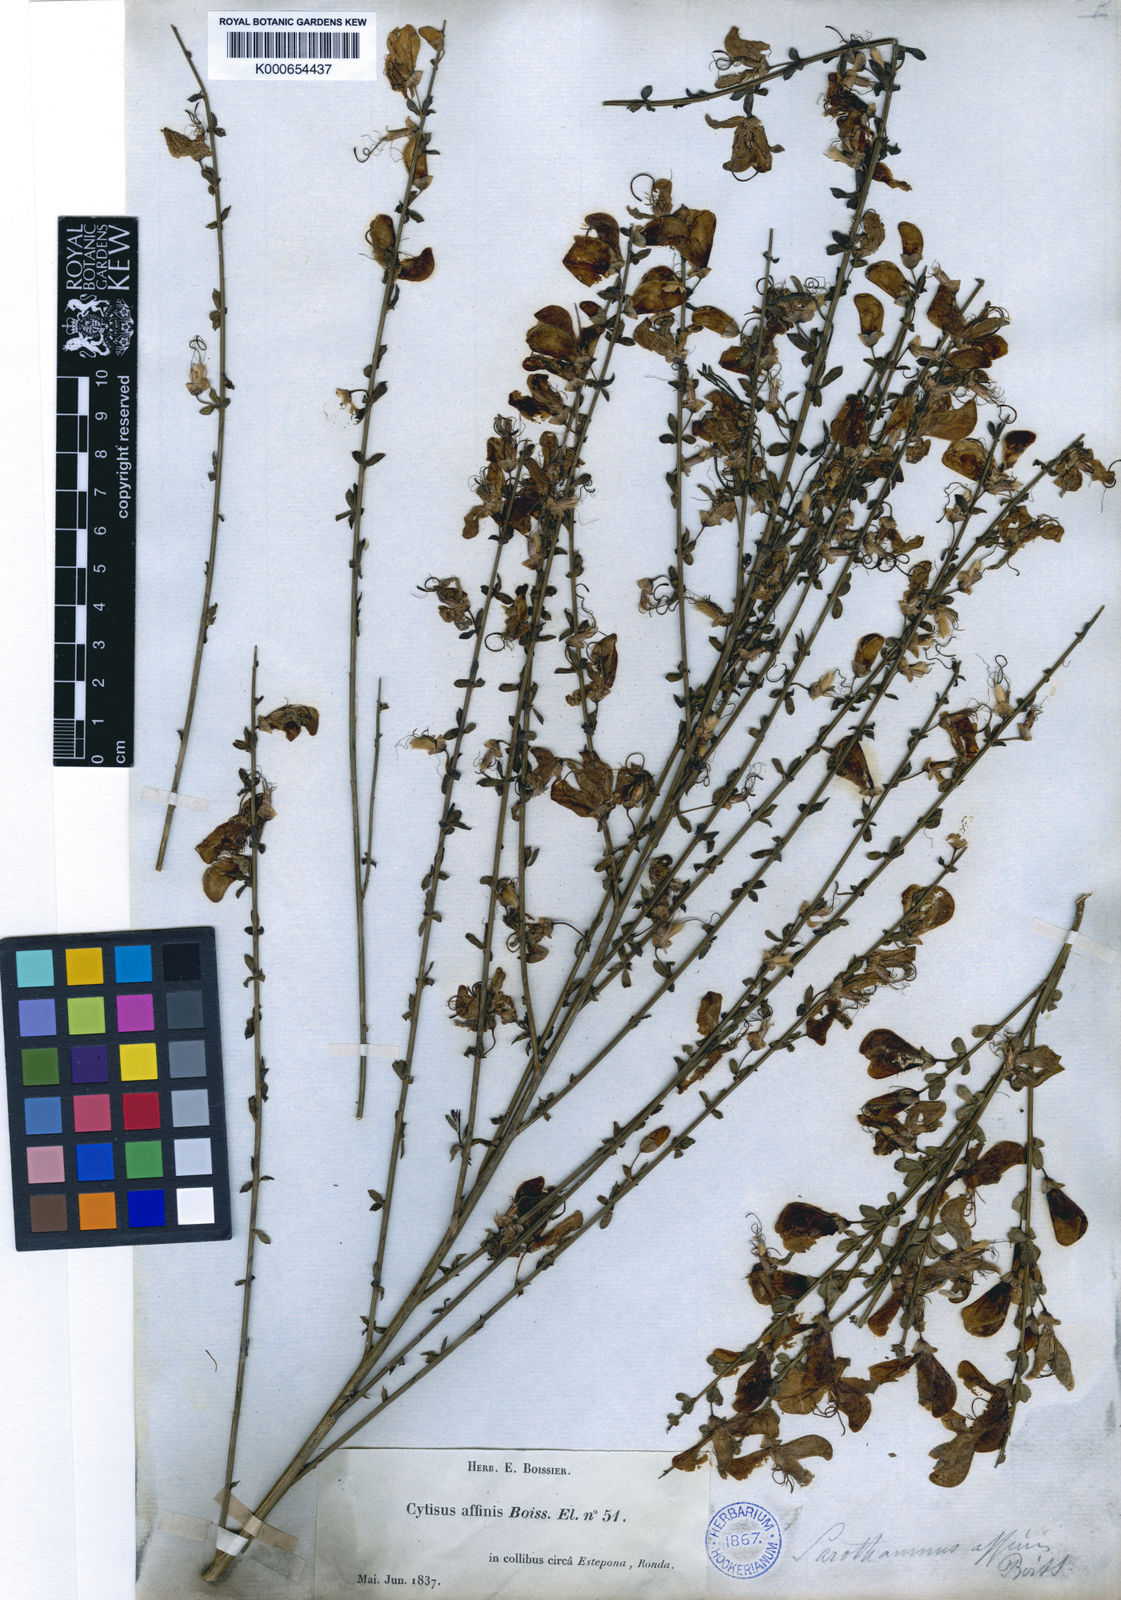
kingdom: Plantae
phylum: Tracheophyta
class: Magnoliopsida
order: Fabales
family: Fabaceae
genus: Cytisus
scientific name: Cytisus grandiflorus
